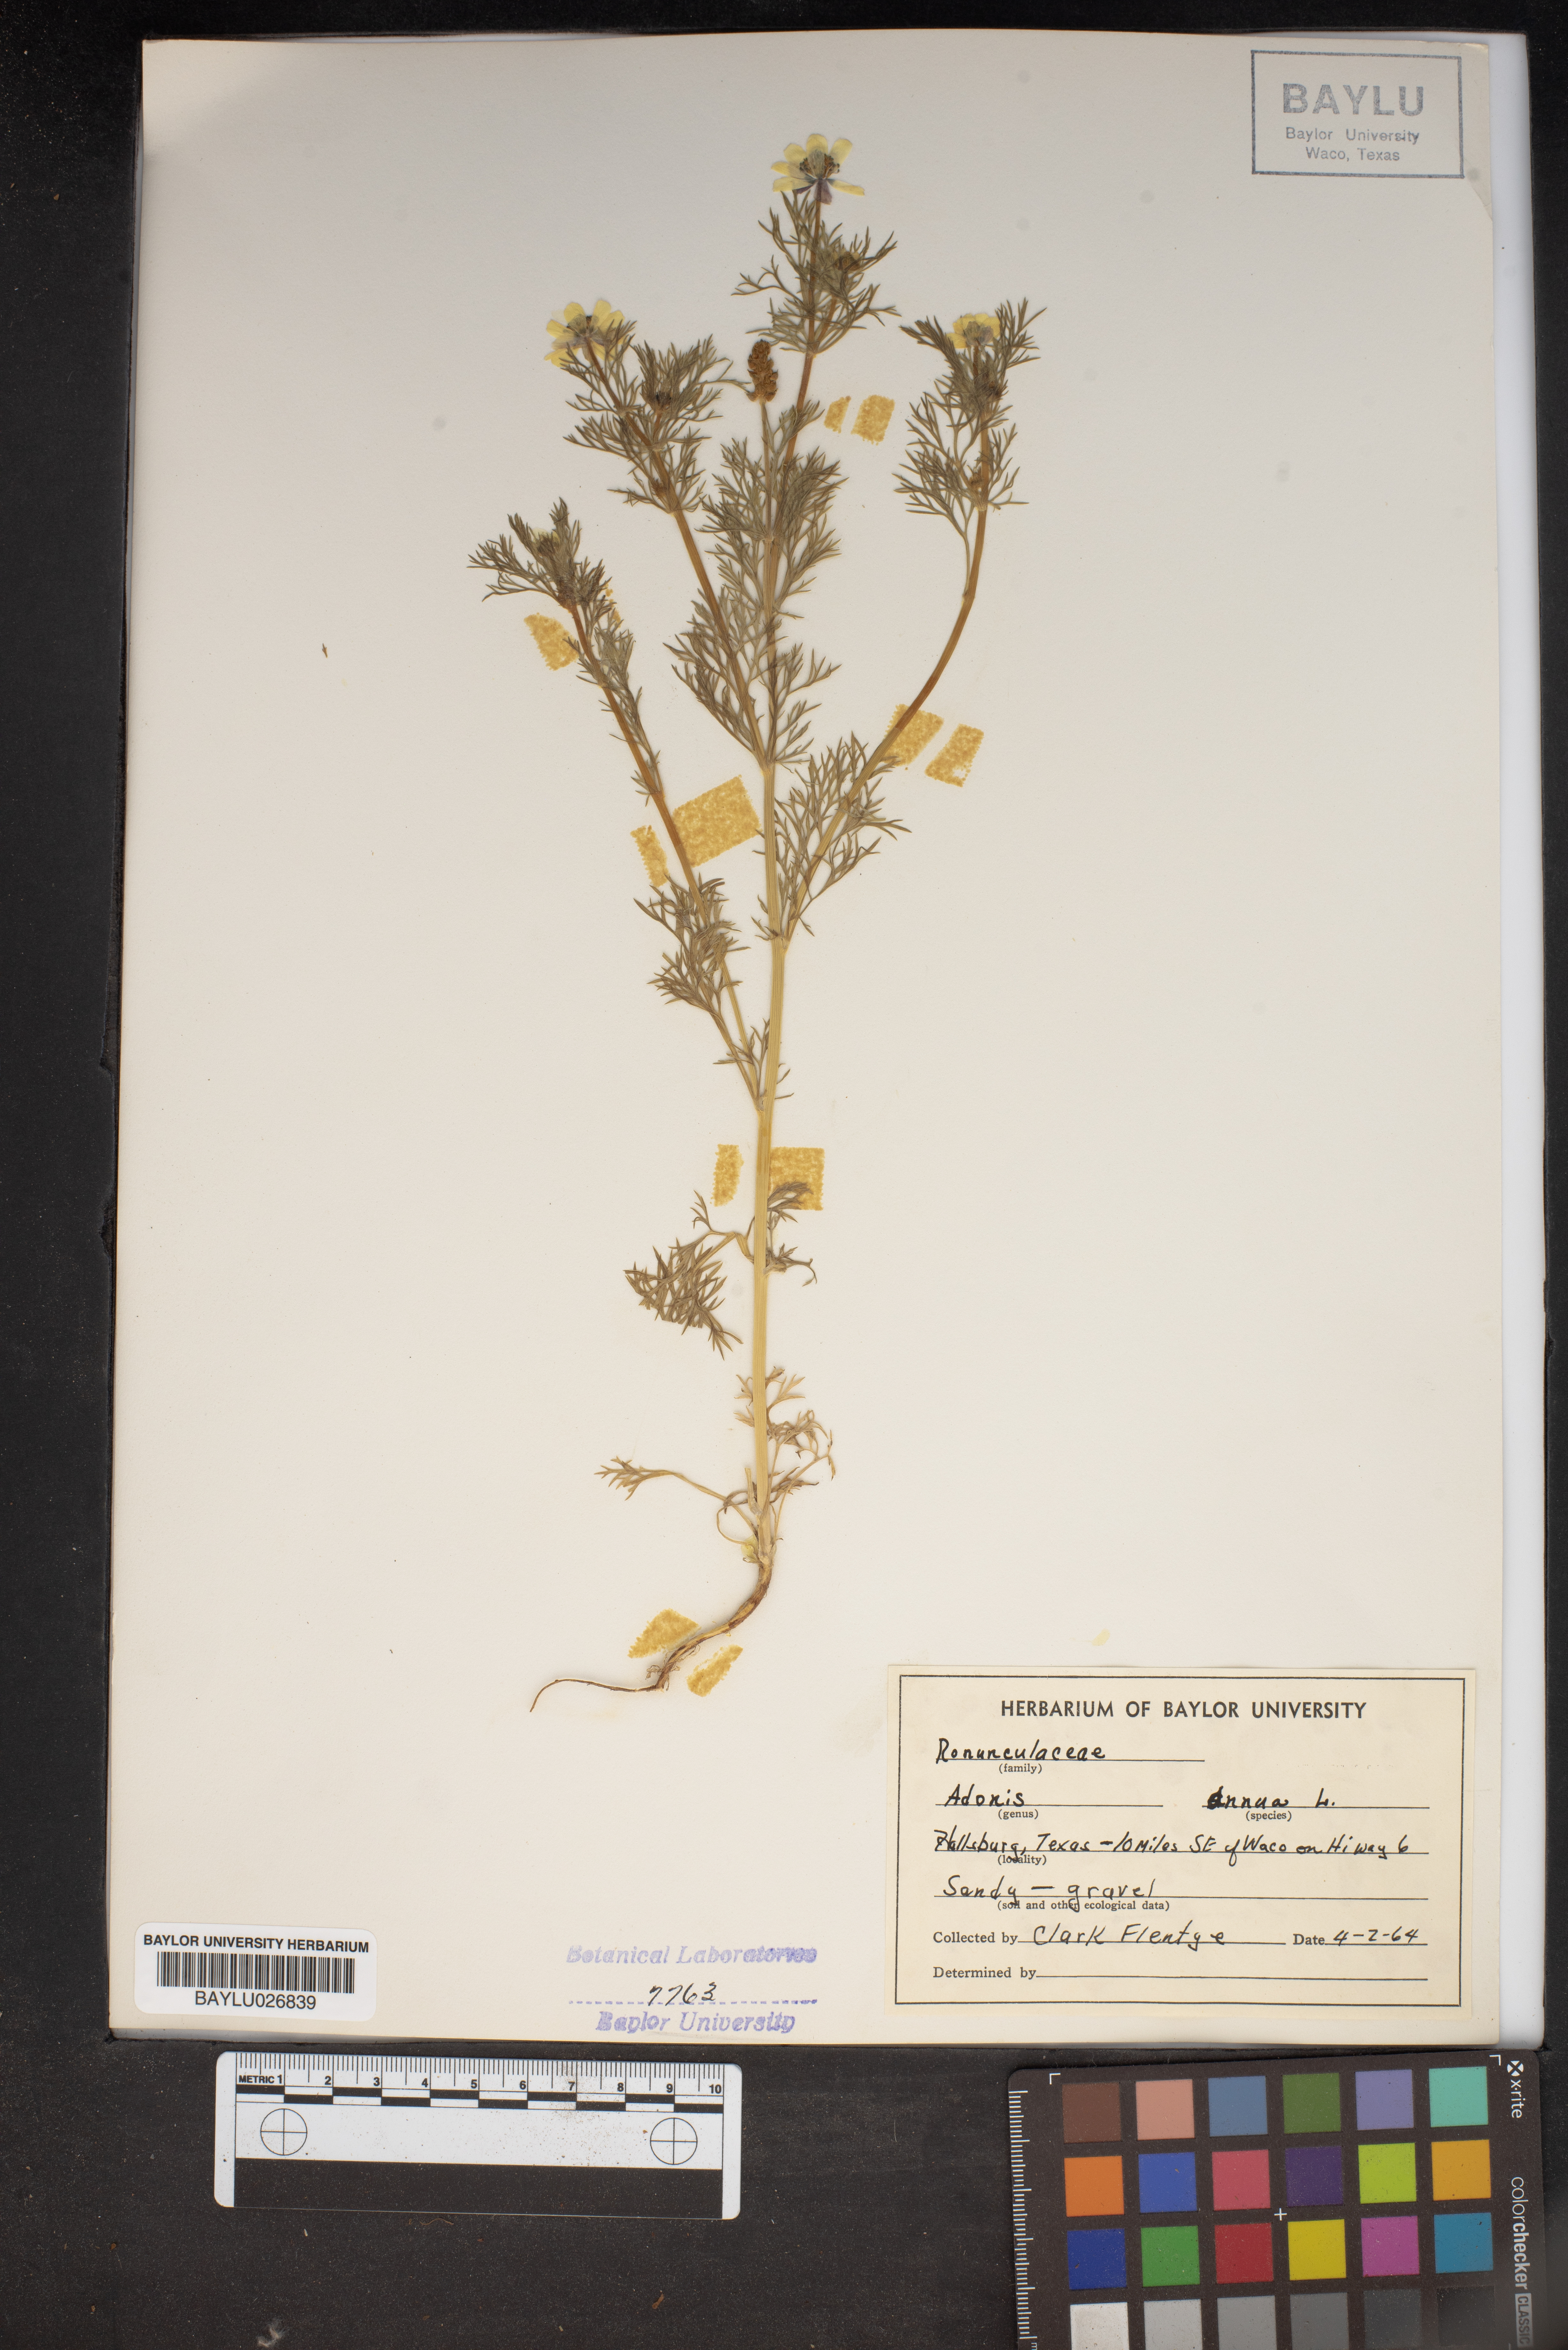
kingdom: Plantae
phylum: Tracheophyta
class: Magnoliopsida
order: Ranunculales
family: Ranunculaceae
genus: Adonis
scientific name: Adonis annua
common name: Pheasant's-eye
